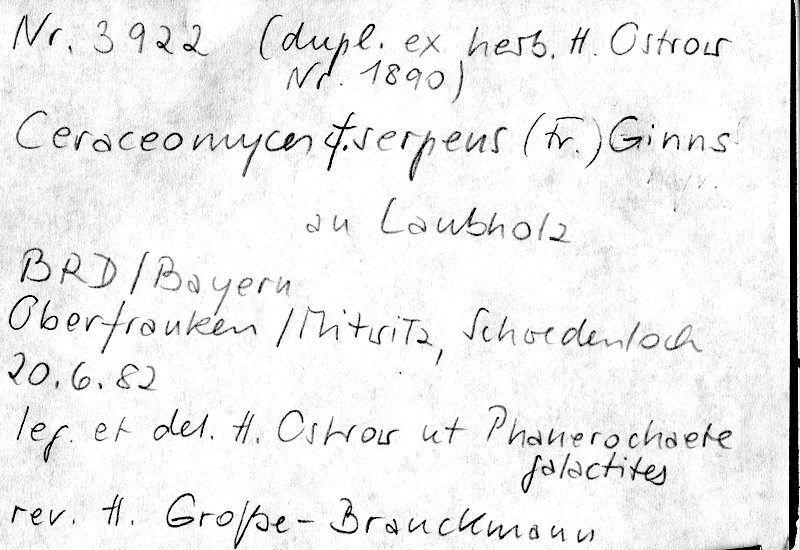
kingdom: Fungi
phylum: Basidiomycota
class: Agaricomycetes
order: Polyporales
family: Irpicaceae
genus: Crystallicutis
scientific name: Crystallicutis serpens
